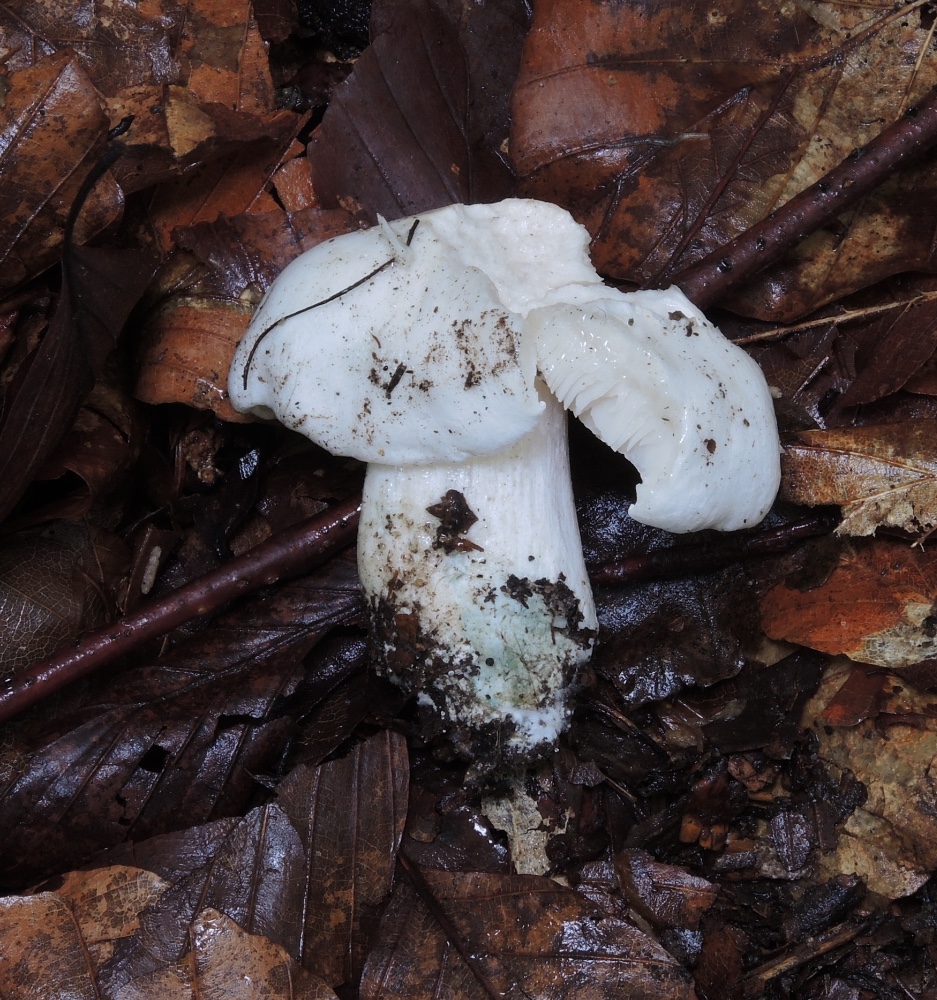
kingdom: Fungi
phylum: Basidiomycota
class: Agaricomycetes
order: Agaricales
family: Tricholomataceae
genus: Tricholoma
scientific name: Tricholoma columbetta
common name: silke-ridderhat
